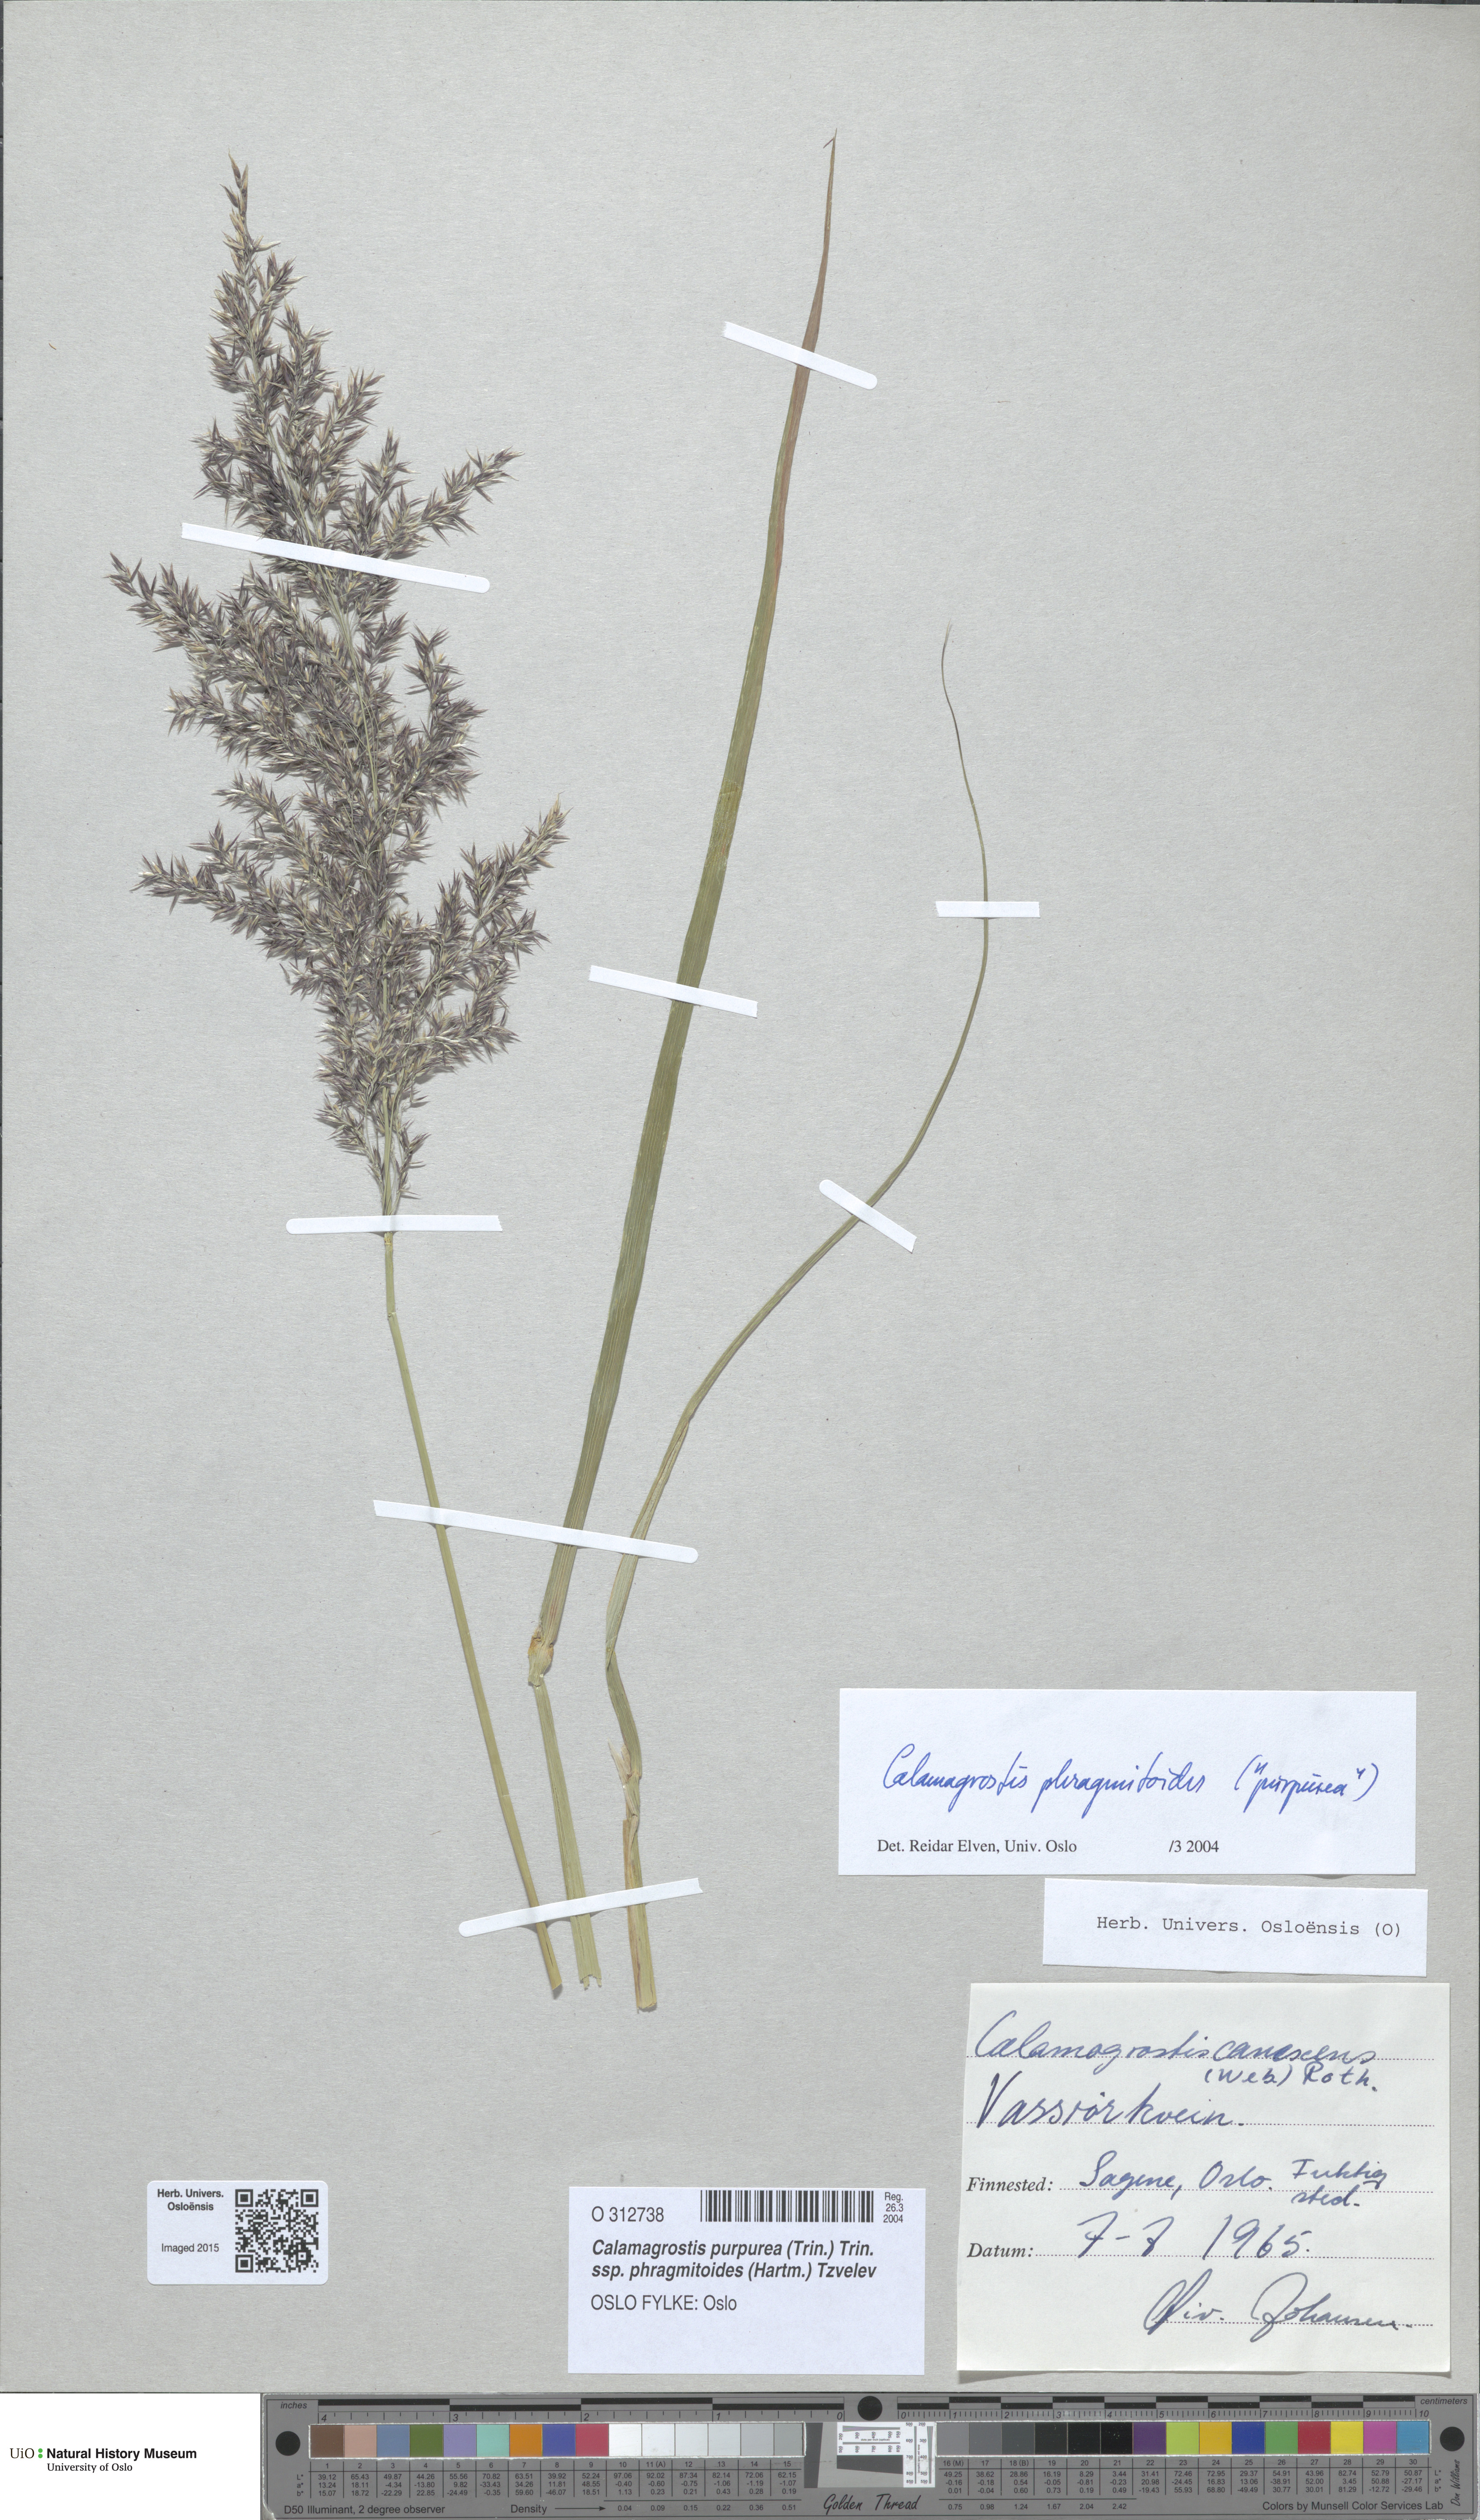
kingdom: Plantae
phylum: Tracheophyta
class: Liliopsida
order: Poales
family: Poaceae
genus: Calamagrostis
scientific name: Calamagrostis purpurea
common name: Scandinavian small-reed
